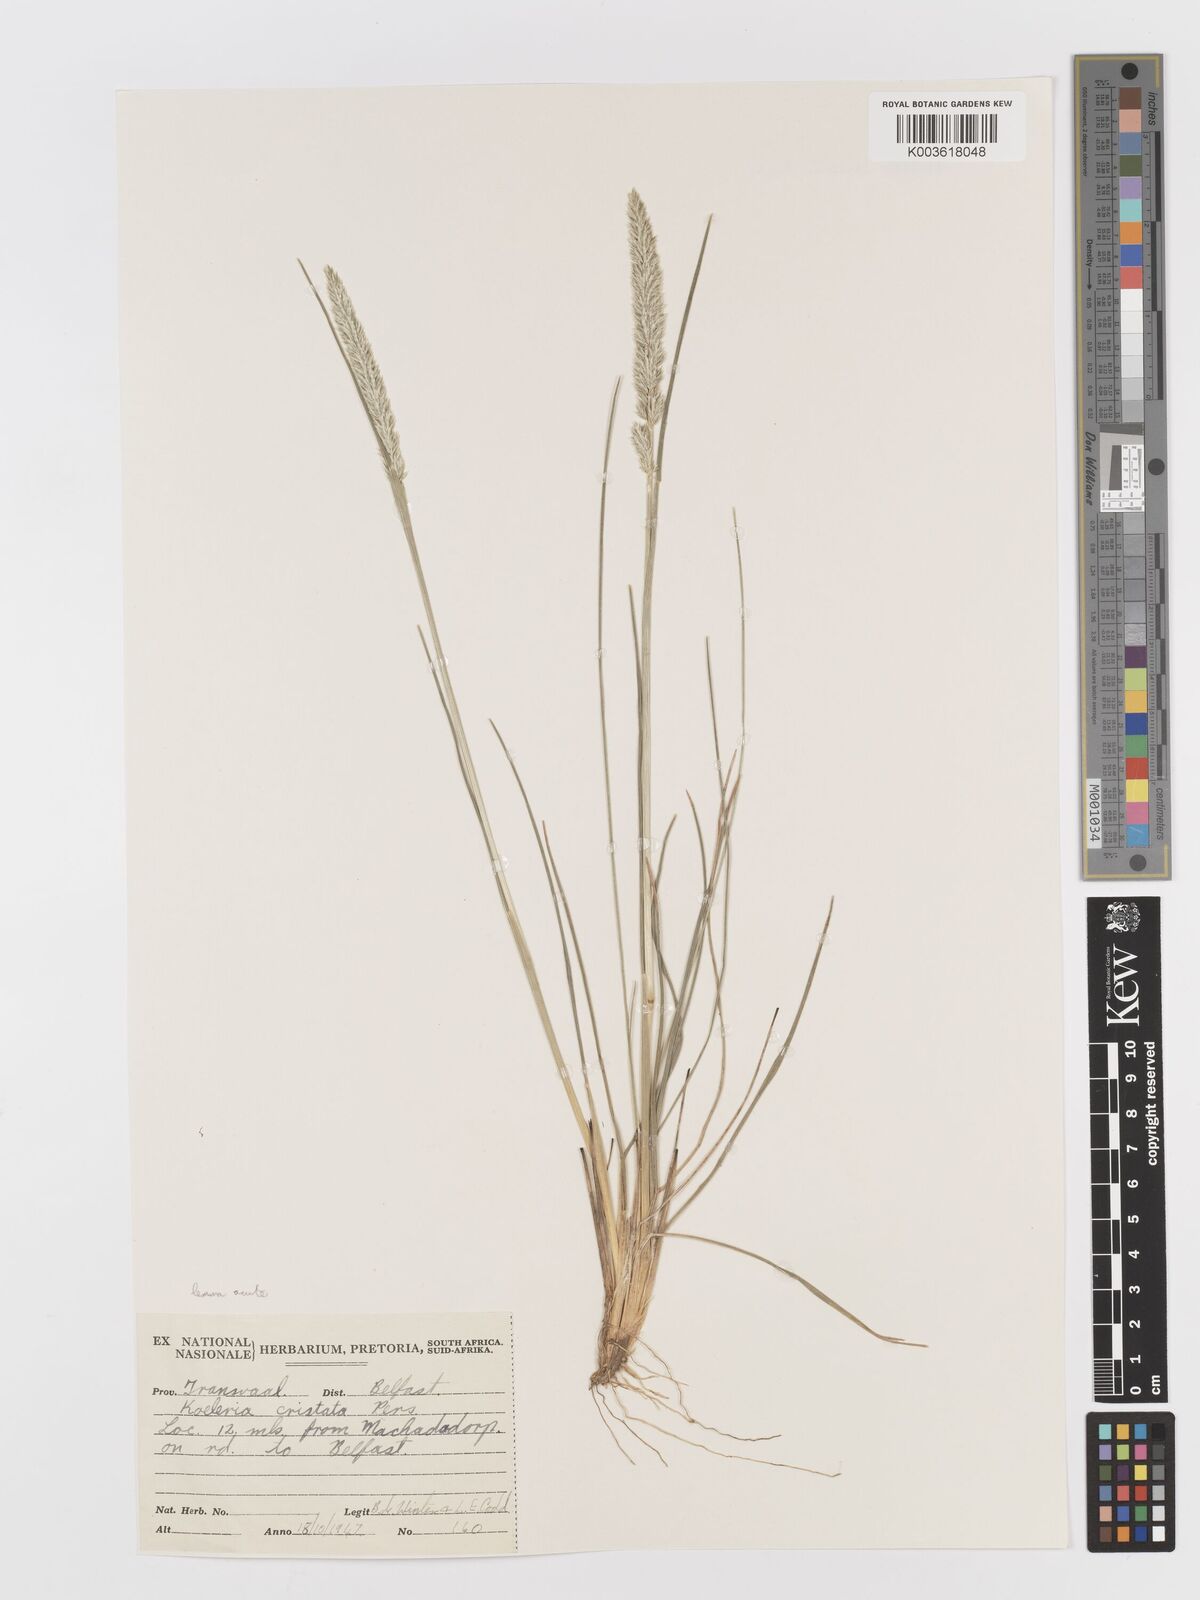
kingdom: Plantae
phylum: Tracheophyta
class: Liliopsida
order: Poales
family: Poaceae
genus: Koeleria
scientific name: Koeleria capensis
